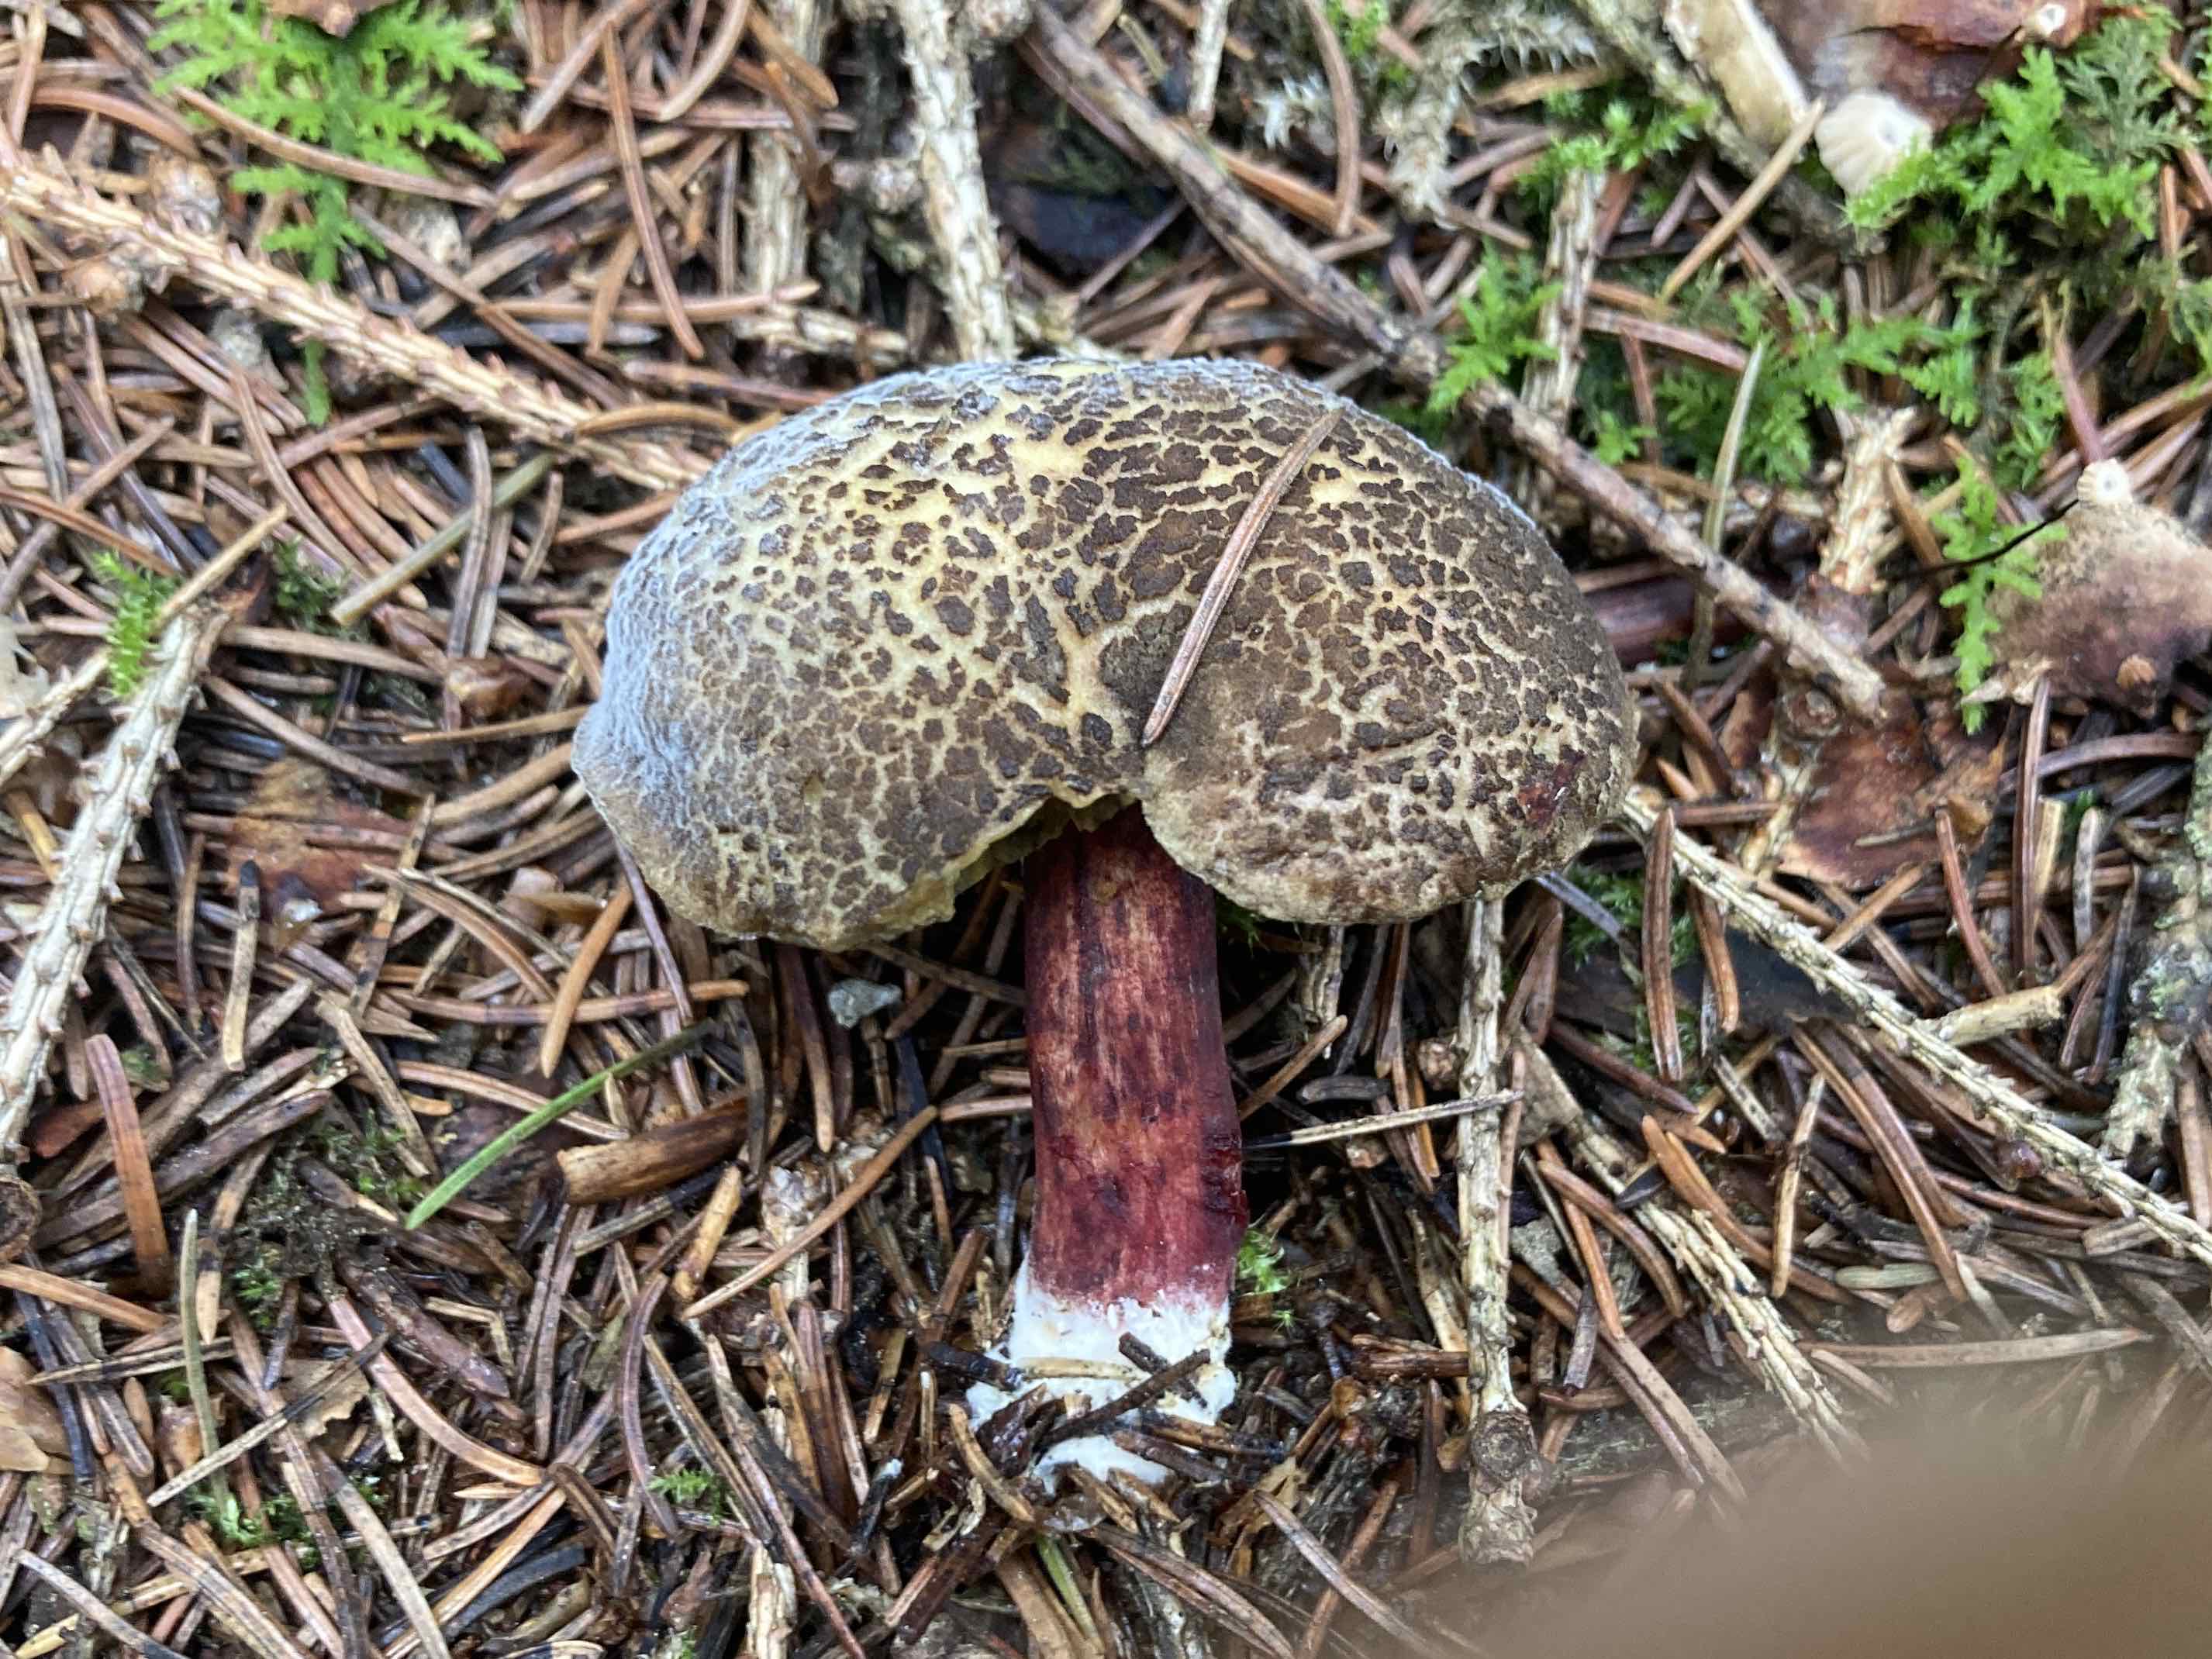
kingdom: Fungi
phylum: Basidiomycota
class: Agaricomycetes
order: Boletales
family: Boletaceae
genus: Xerocomellus
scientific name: Xerocomellus
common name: dværgrørhat
